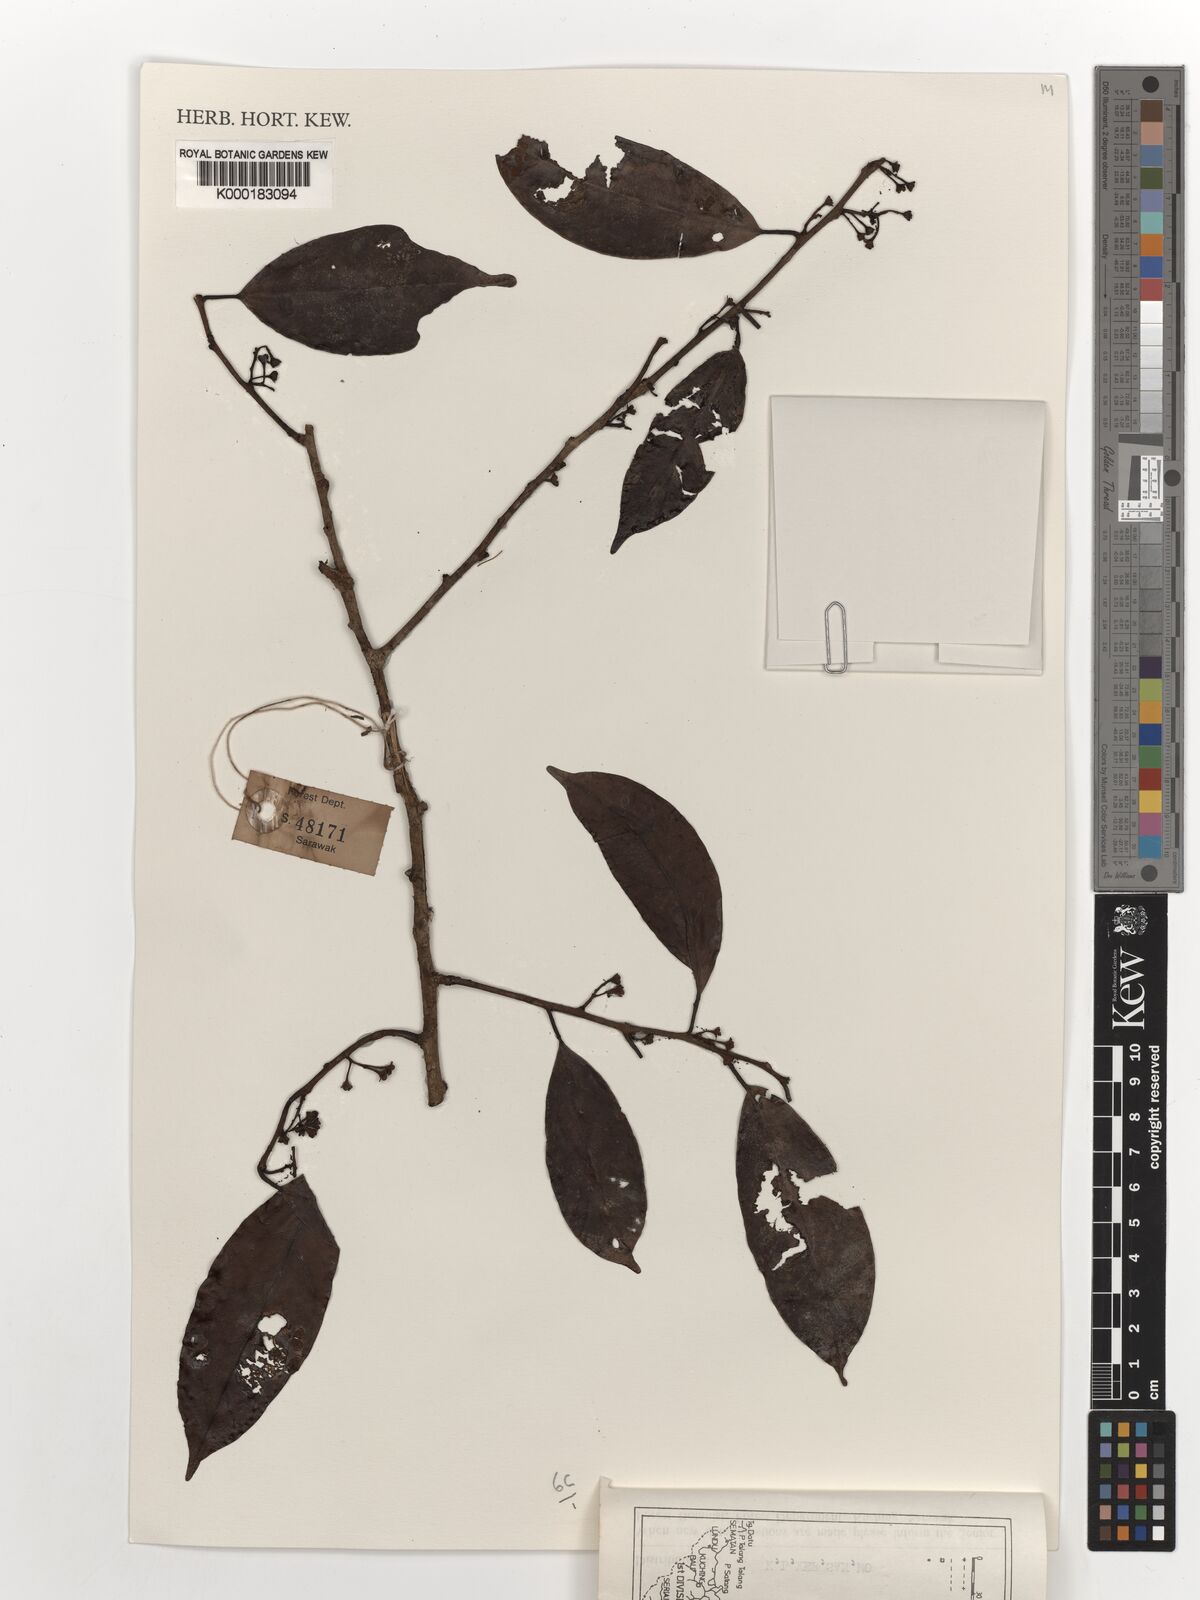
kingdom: Plantae
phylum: Tracheophyta
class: Magnoliopsida
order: Solanales
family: Convolvulaceae
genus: Erycibe
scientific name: Erycibe
